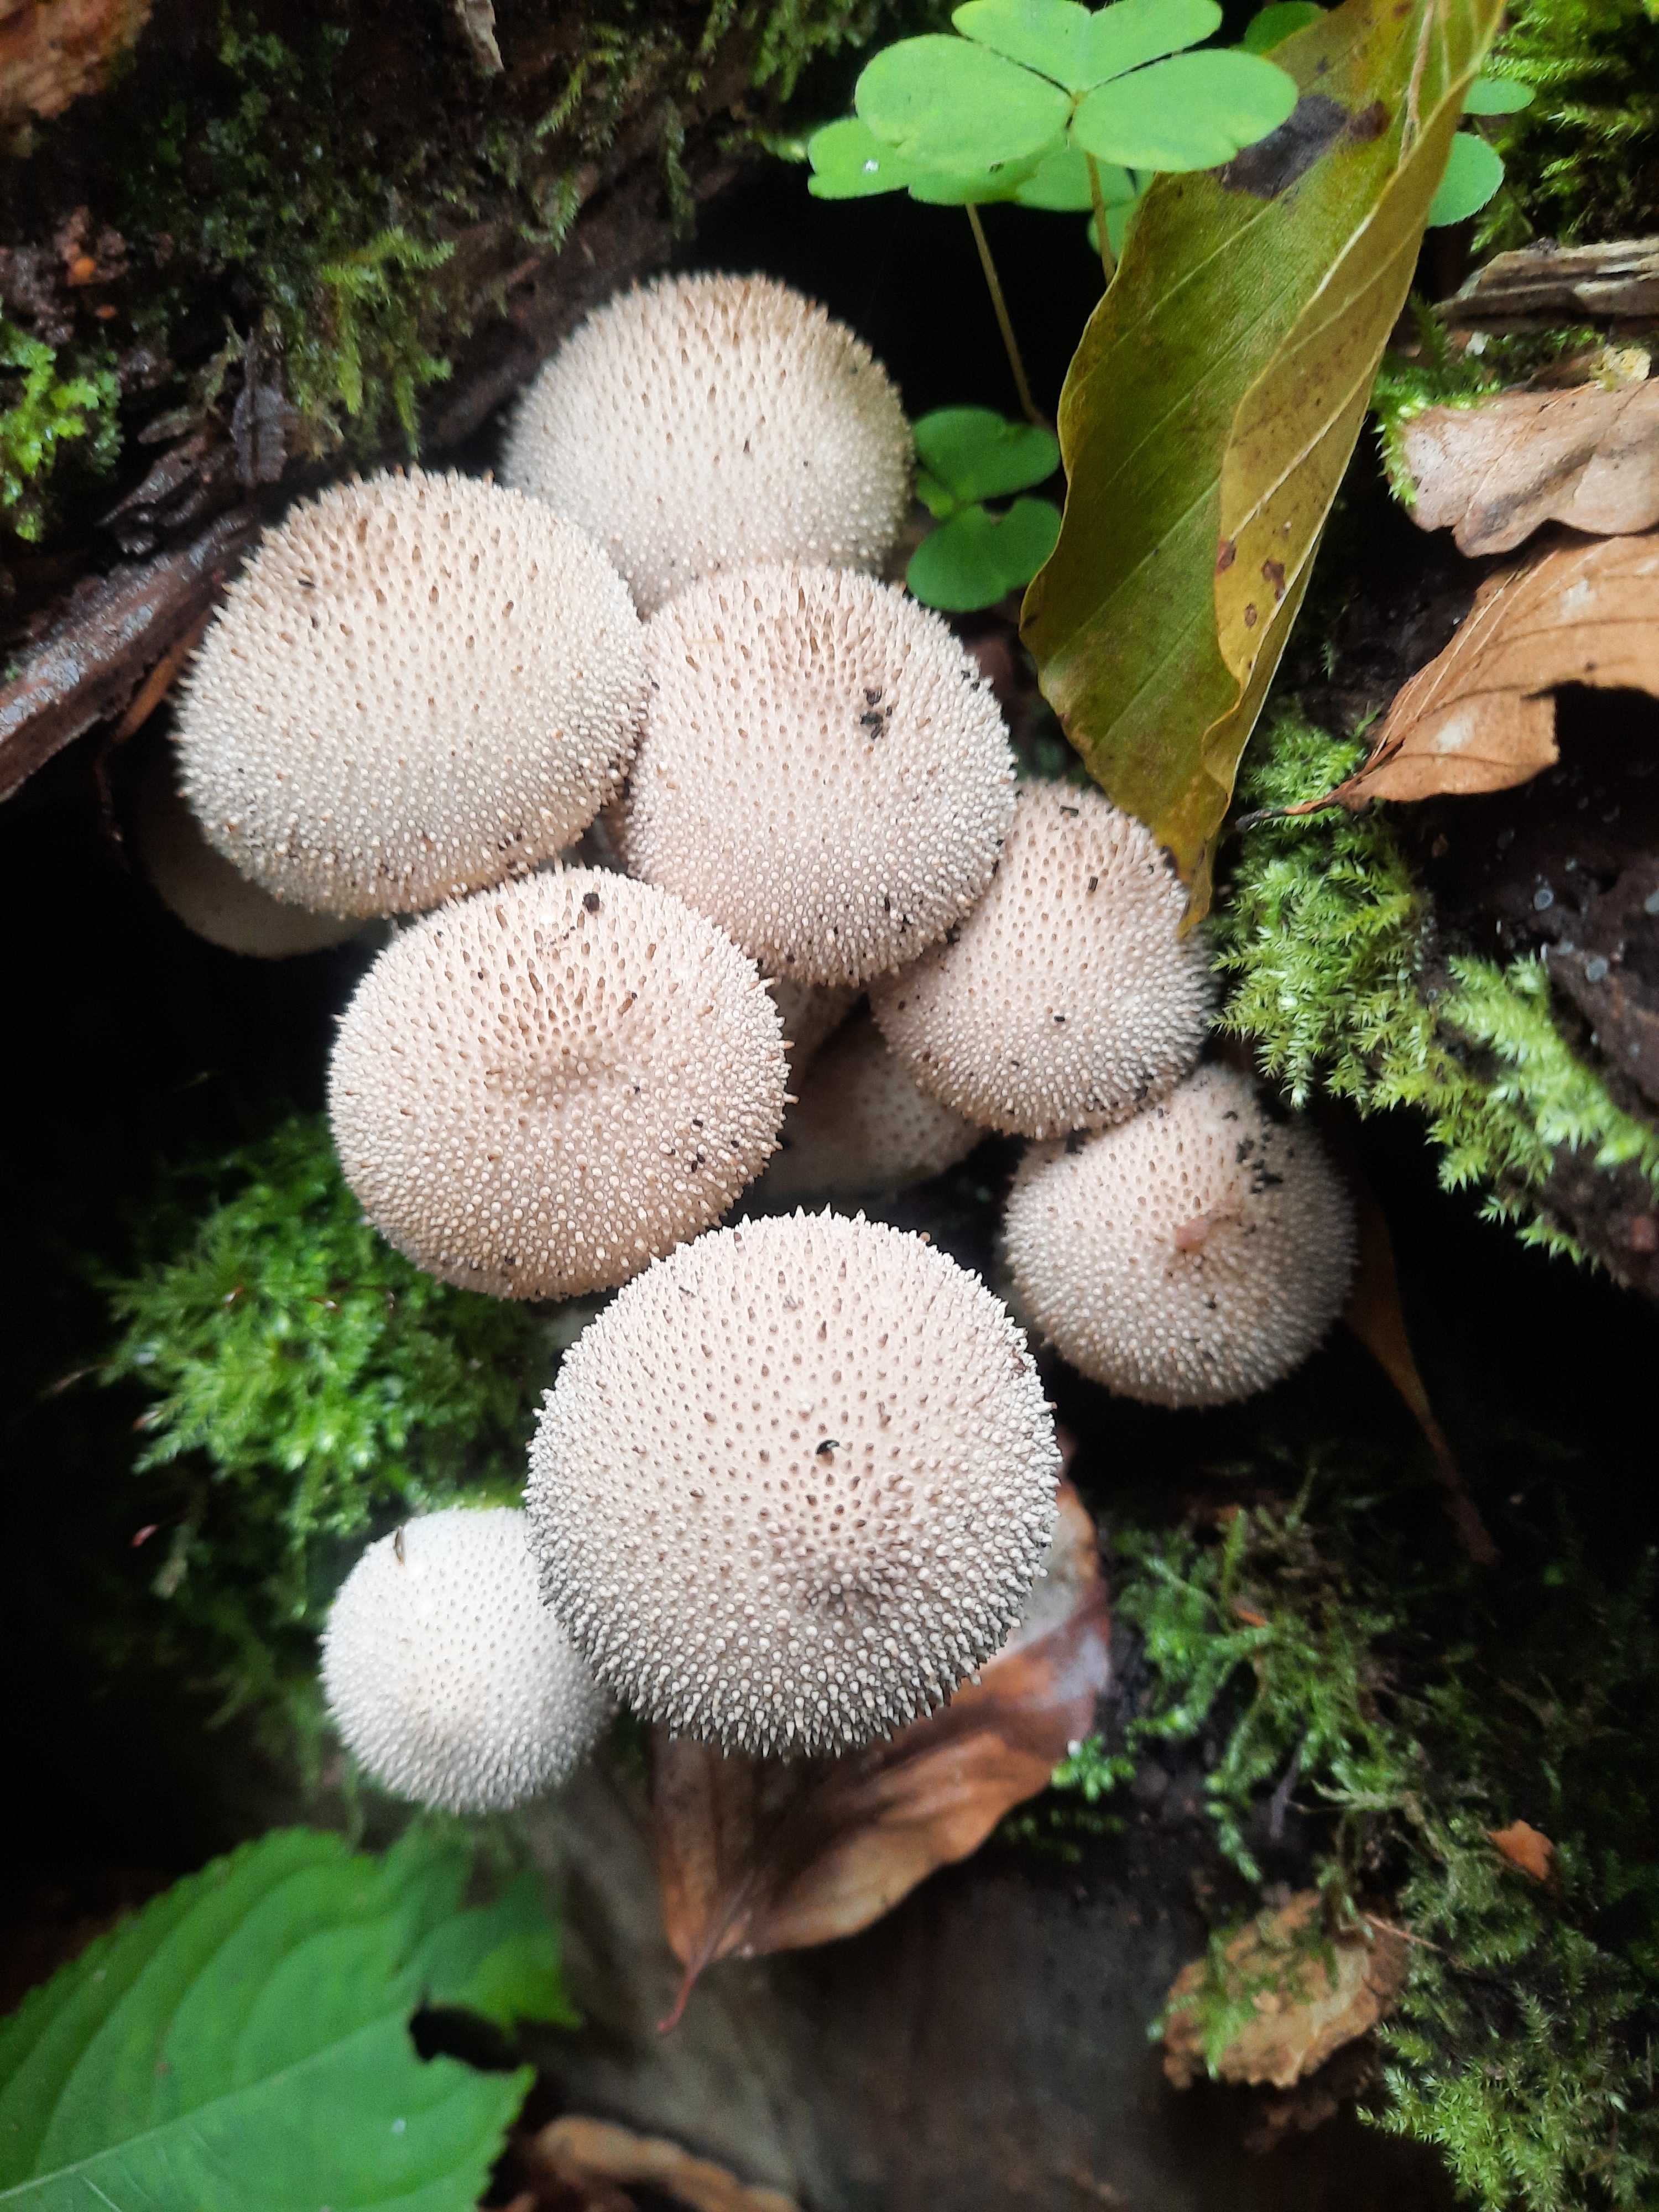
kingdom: Fungi
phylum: Basidiomycota
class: Agaricomycetes
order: Agaricales
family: Lycoperdaceae
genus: Lycoperdon
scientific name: Lycoperdon perlatum
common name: krystal-støvbold
